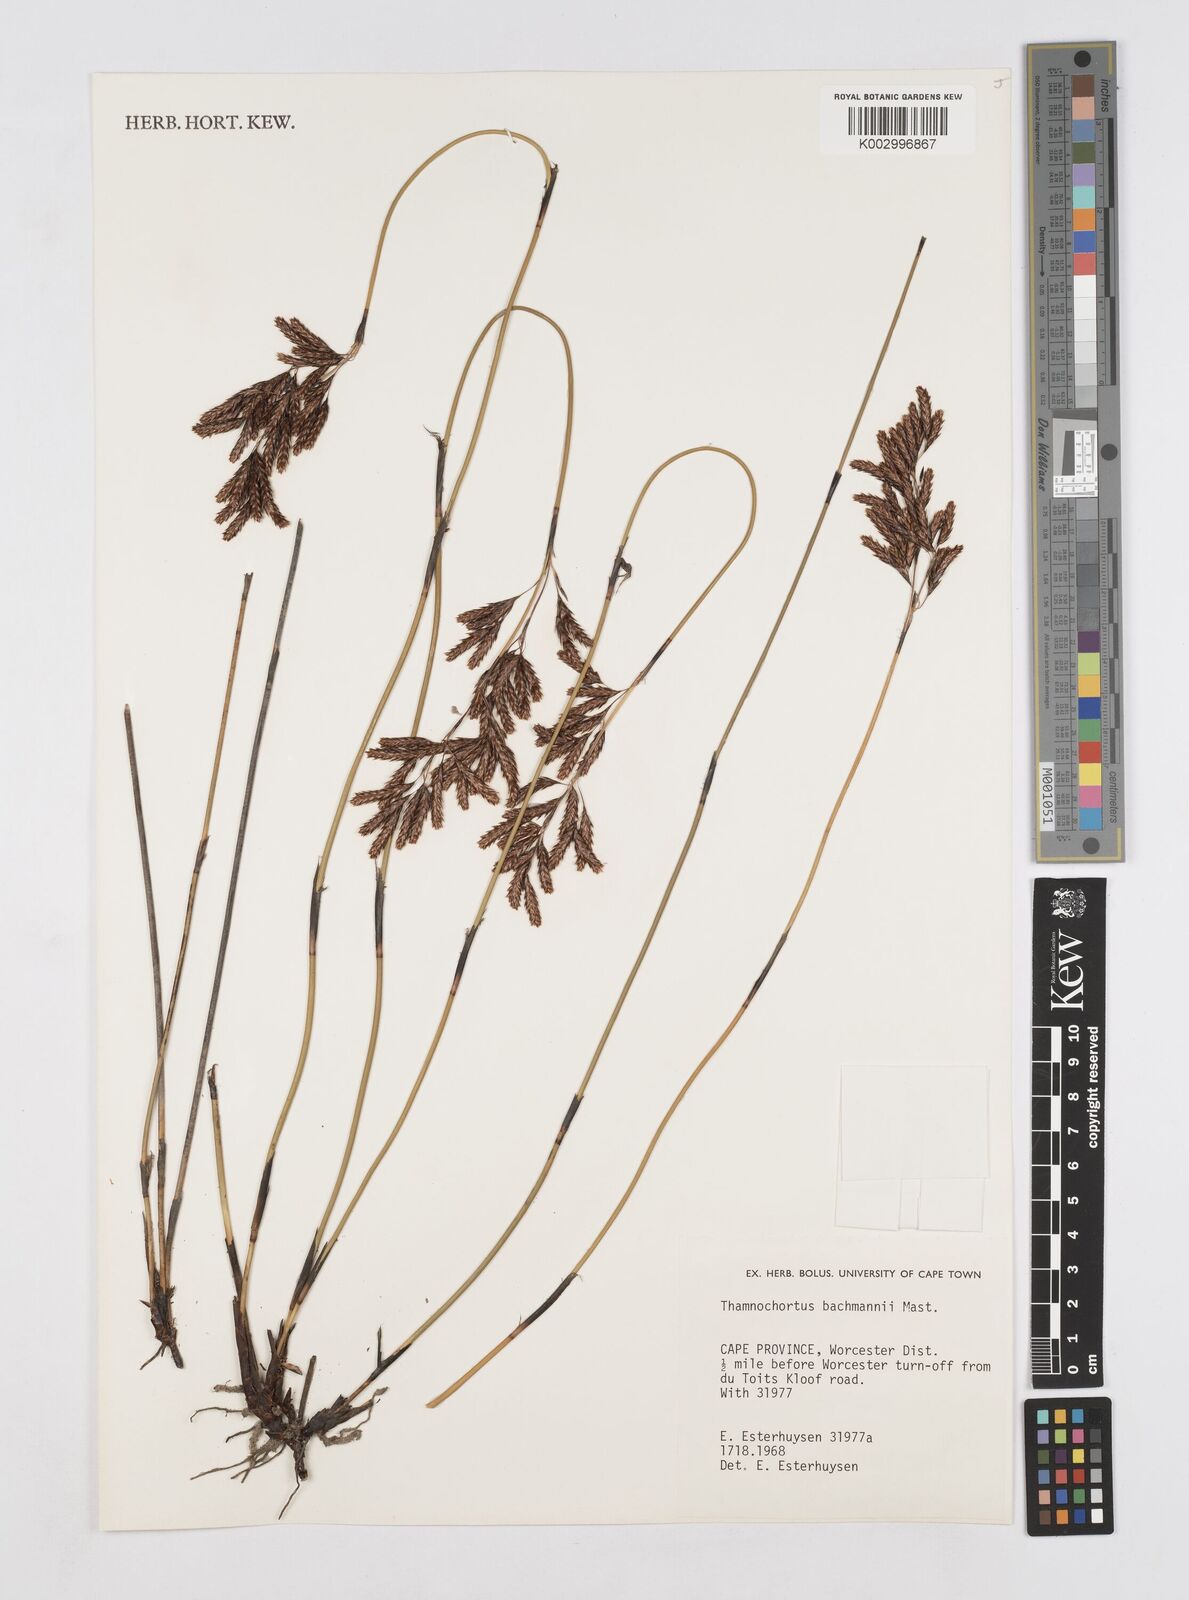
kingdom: Plantae
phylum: Tracheophyta
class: Liliopsida
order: Poales
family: Restionaceae
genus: Thamnochortus
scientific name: Thamnochortus bachmannii
